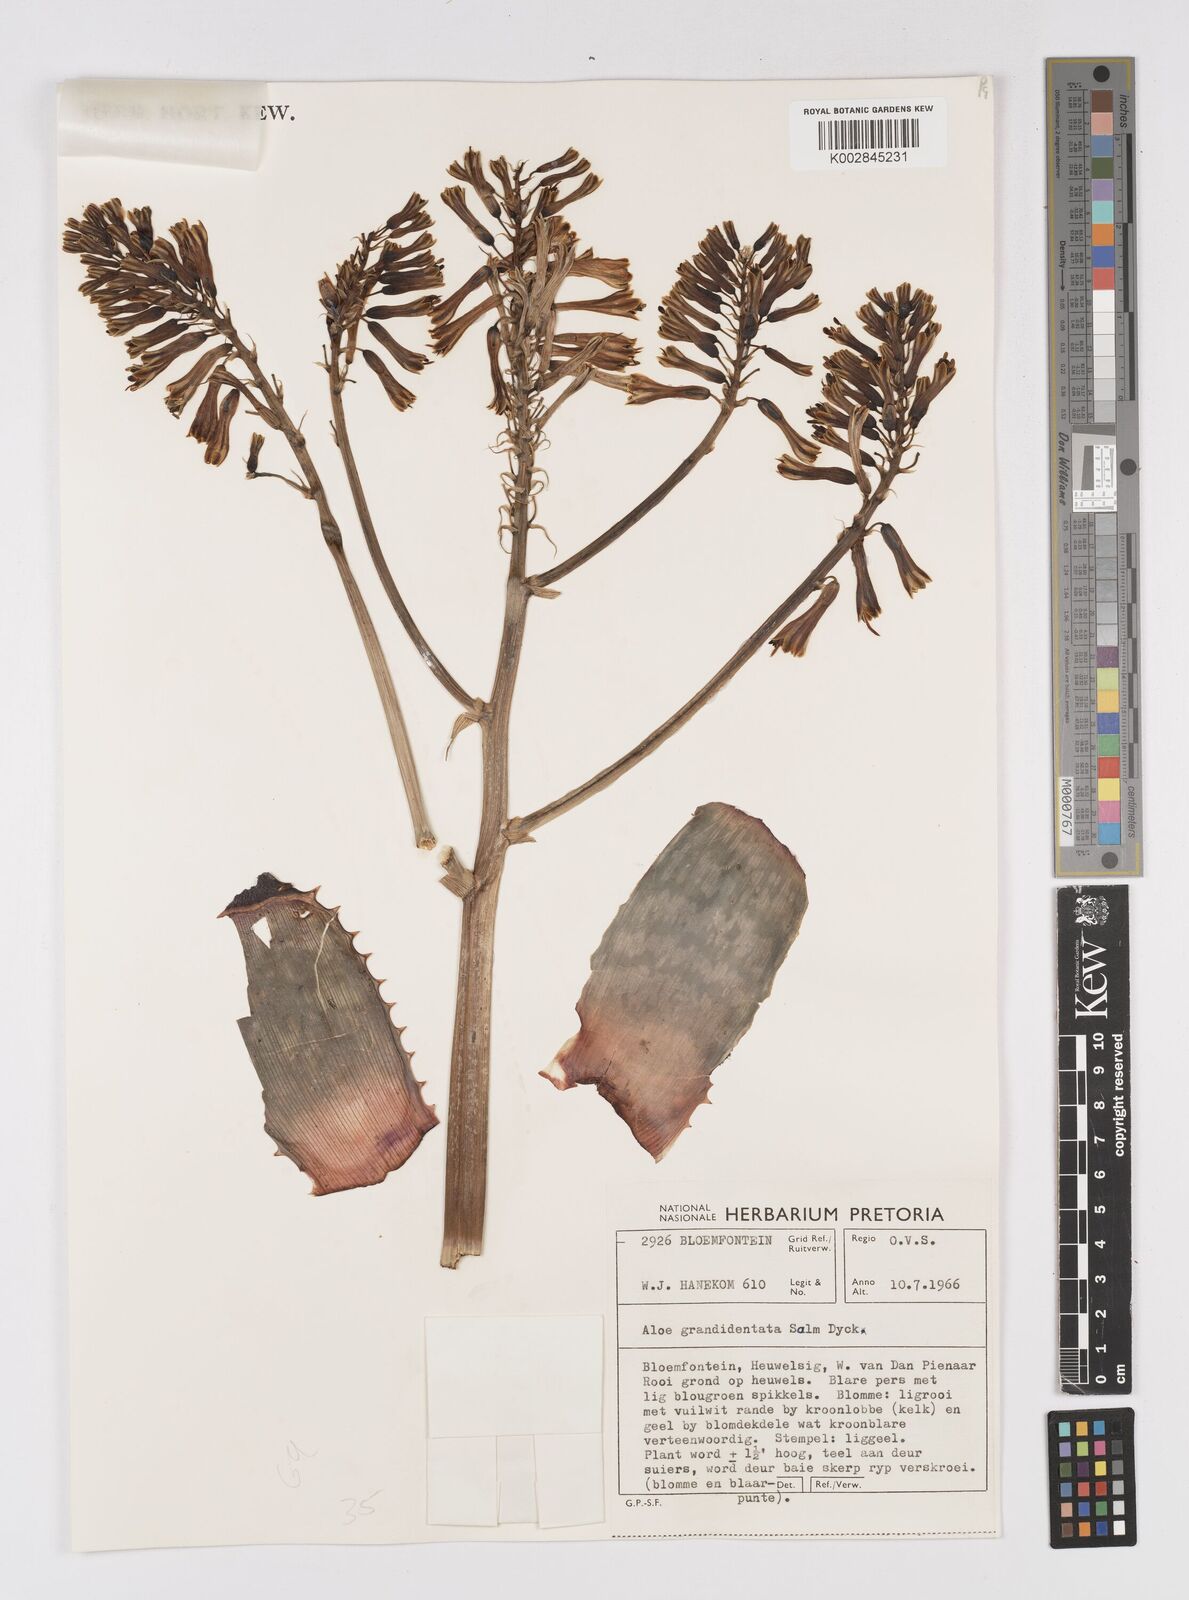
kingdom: Plantae
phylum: Tracheophyta
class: Liliopsida
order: Asparagales
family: Asphodelaceae
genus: Aloe
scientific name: Aloe grandidentata
